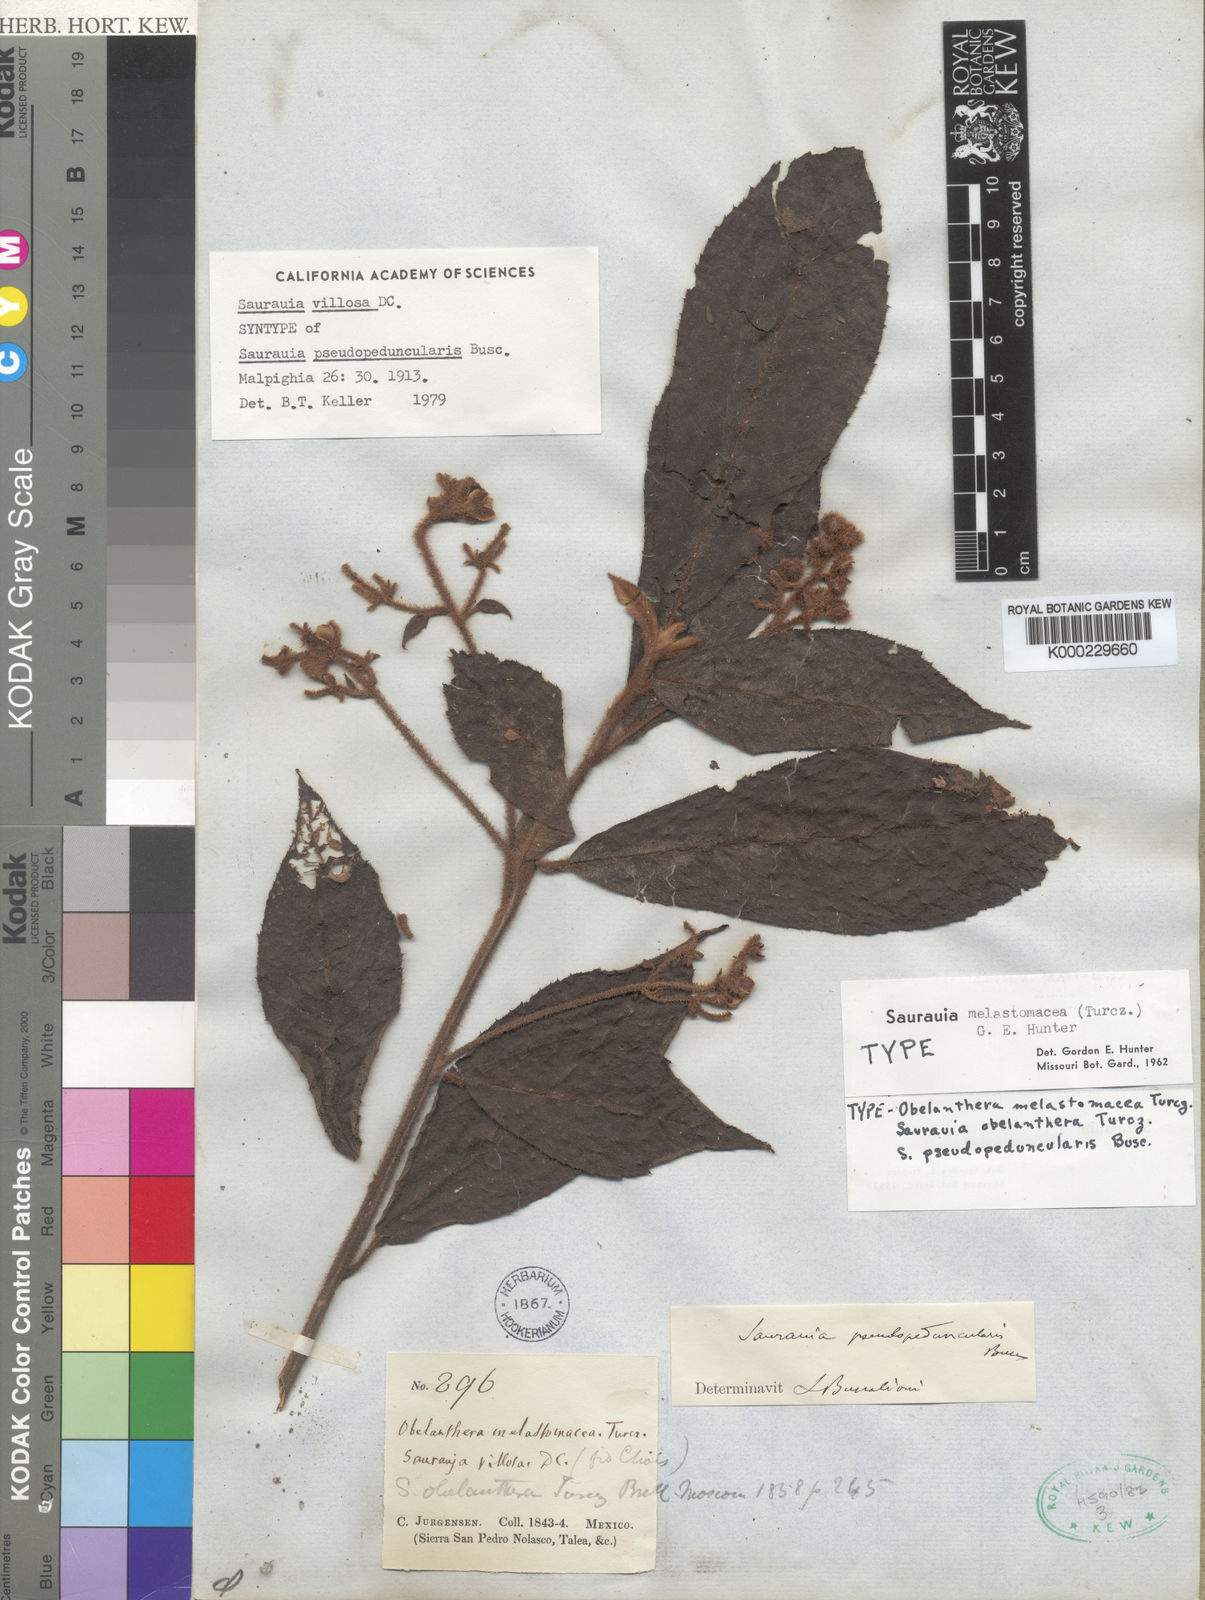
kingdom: Plantae
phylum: Tracheophyta
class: Magnoliopsida
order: Ericales
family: Actinidiaceae
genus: Saurauia
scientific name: Saurauia villosa
